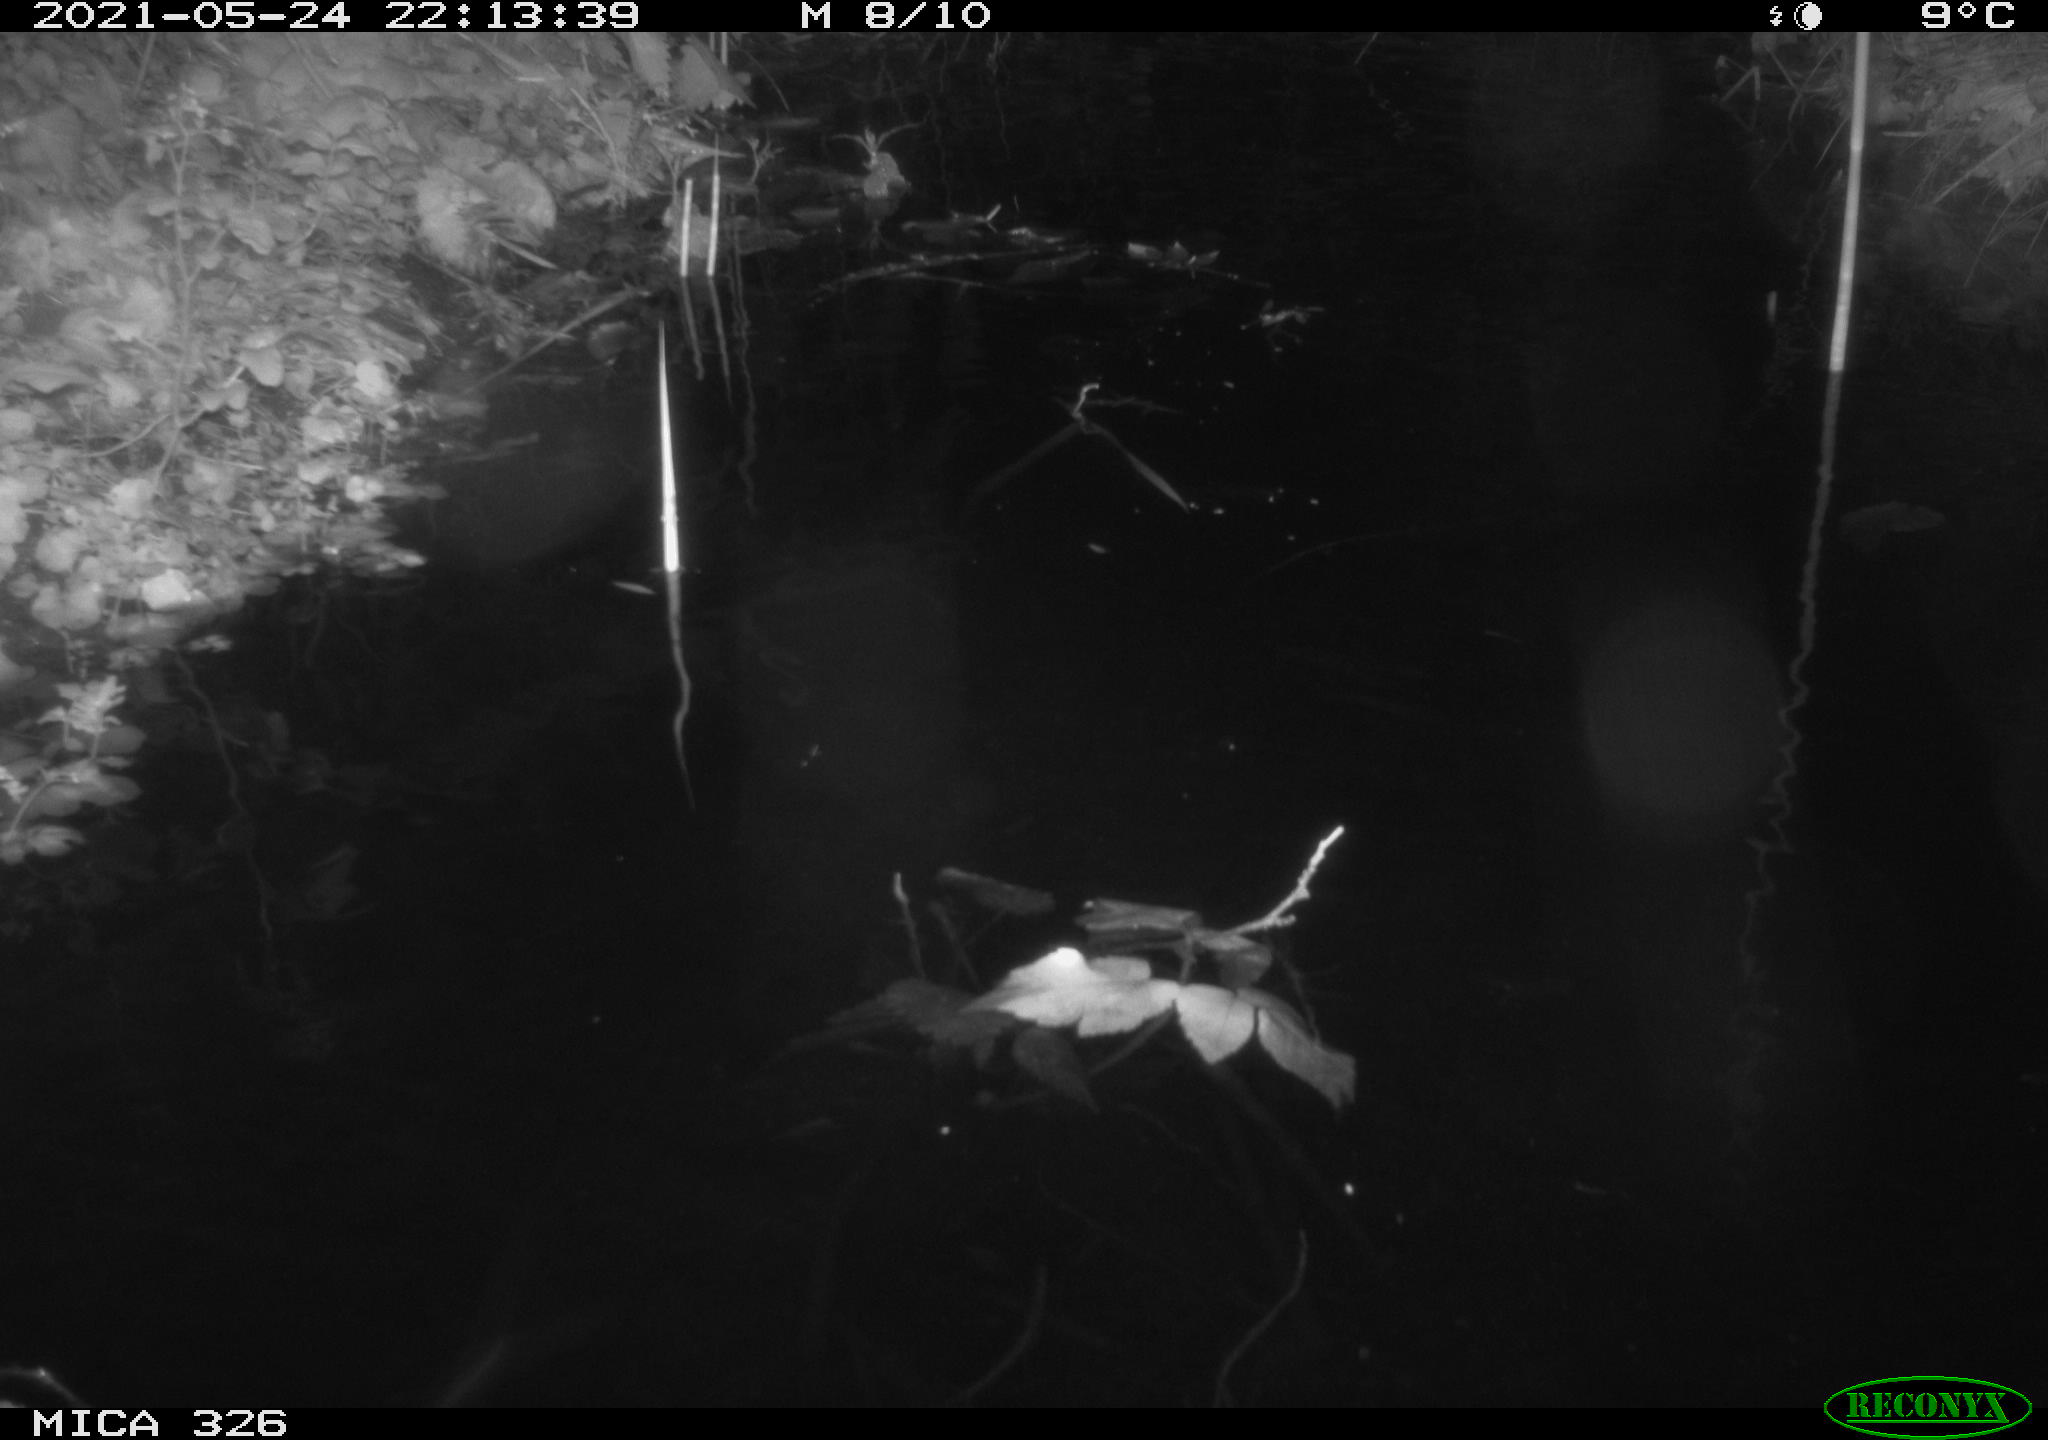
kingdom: Animalia
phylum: Chordata
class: Mammalia
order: Rodentia
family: Cricetidae
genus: Ondatra
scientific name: Ondatra zibethicus
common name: Muskrat
